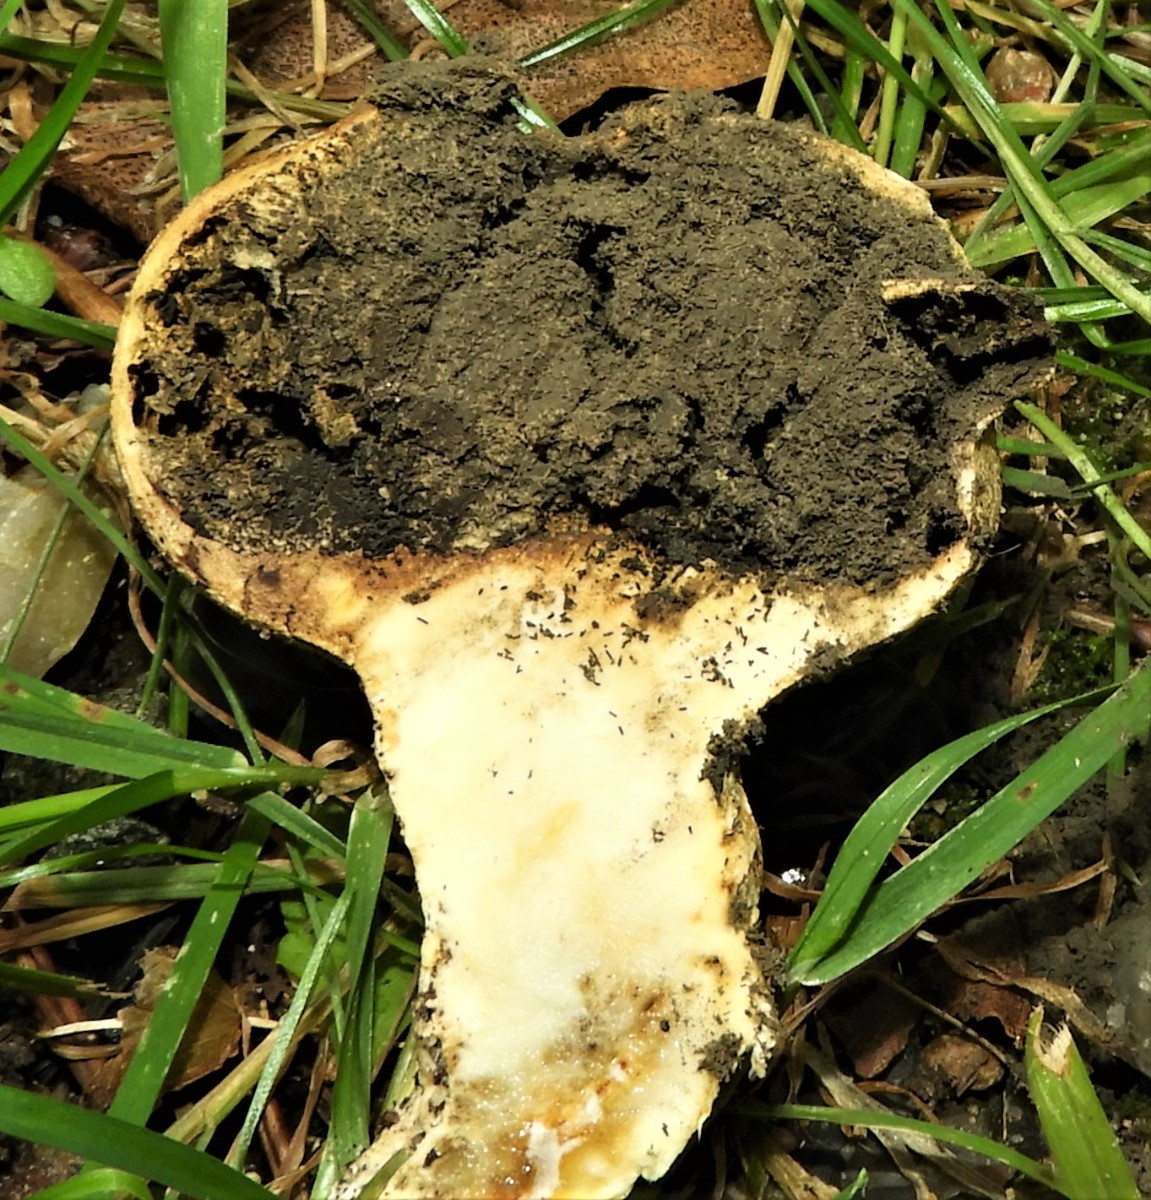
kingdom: Fungi
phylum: Basidiomycota
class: Agaricomycetes
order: Boletales
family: Sclerodermataceae
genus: Scleroderma
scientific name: Scleroderma verrucosum
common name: stilket bruskbold
